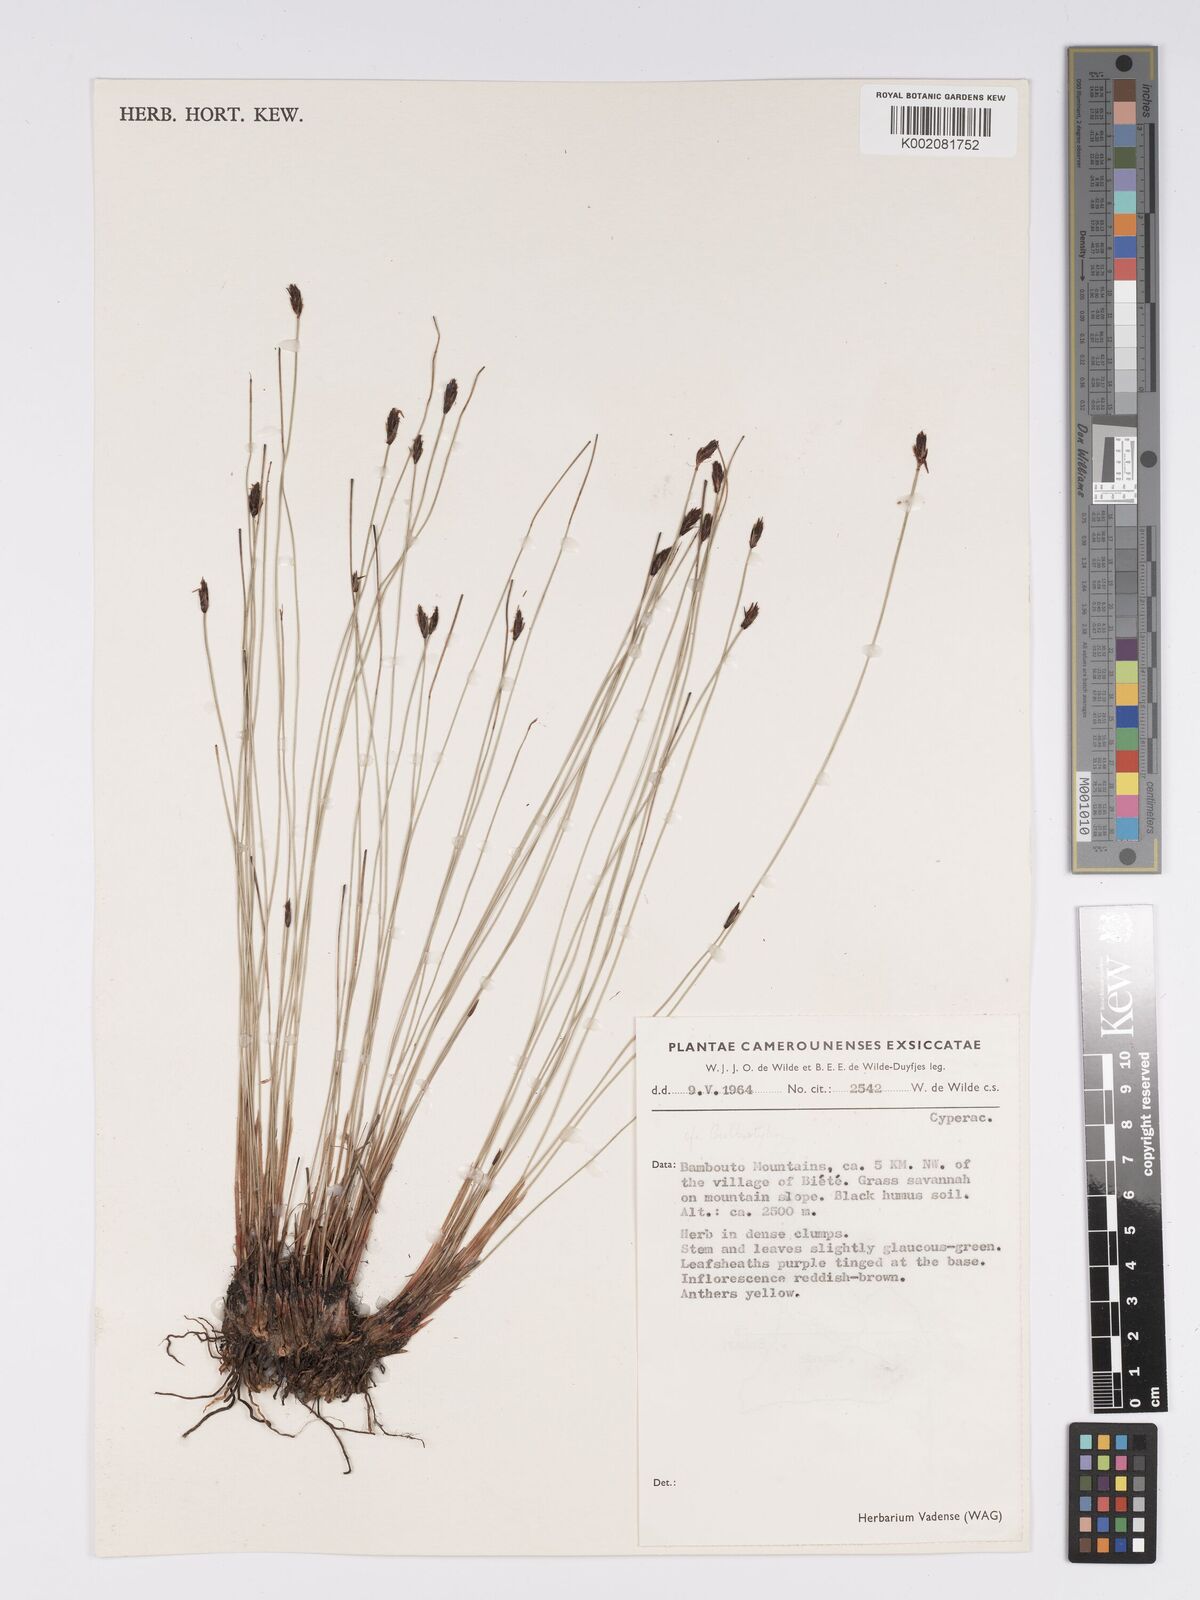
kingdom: Plantae
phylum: Tracheophyta
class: Liliopsida
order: Poales
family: Cyperaceae
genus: Bulbostylis
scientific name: Bulbostylis oritrephes
